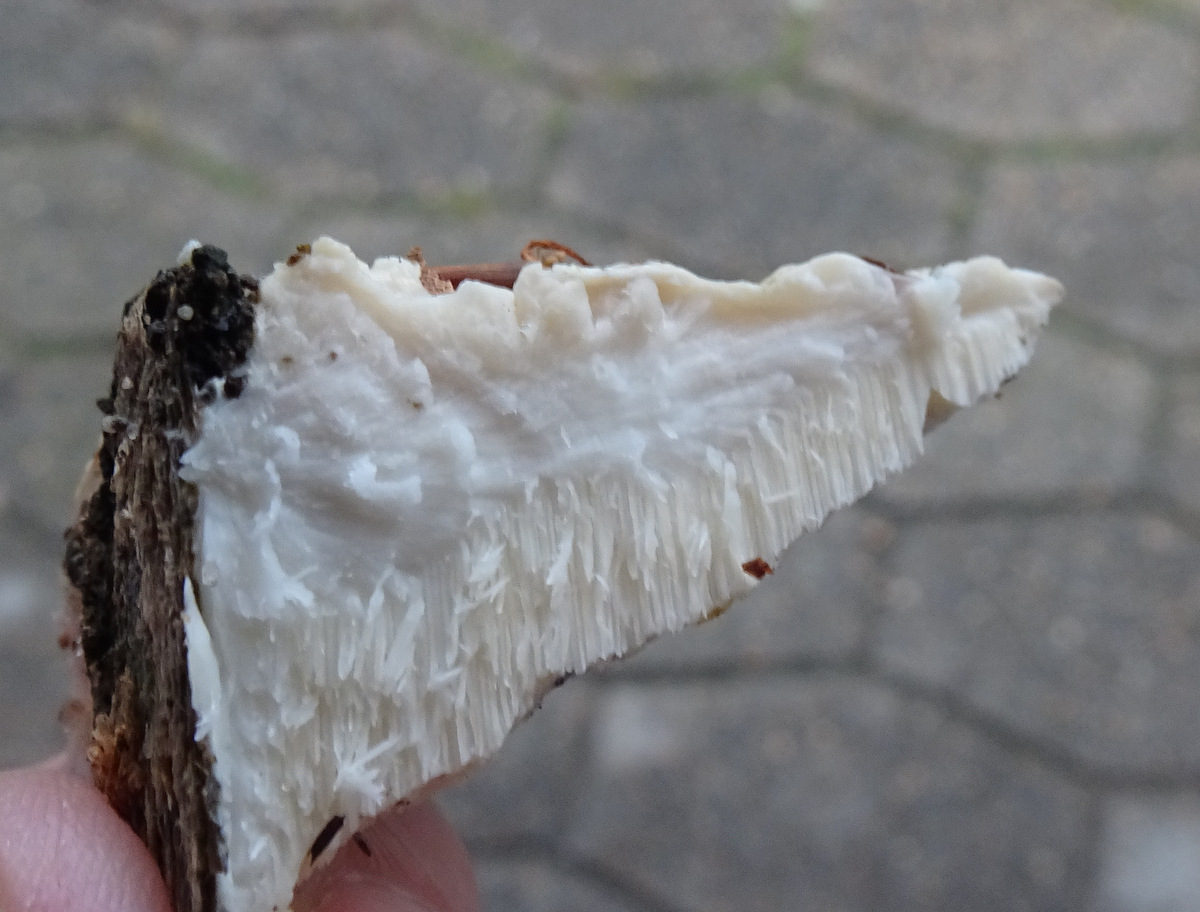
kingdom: Fungi
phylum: Basidiomycota
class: Agaricomycetes
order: Polyporales
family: Fomitopsidaceae
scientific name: Fomitopsidaceae
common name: hovporesvampfamilien
